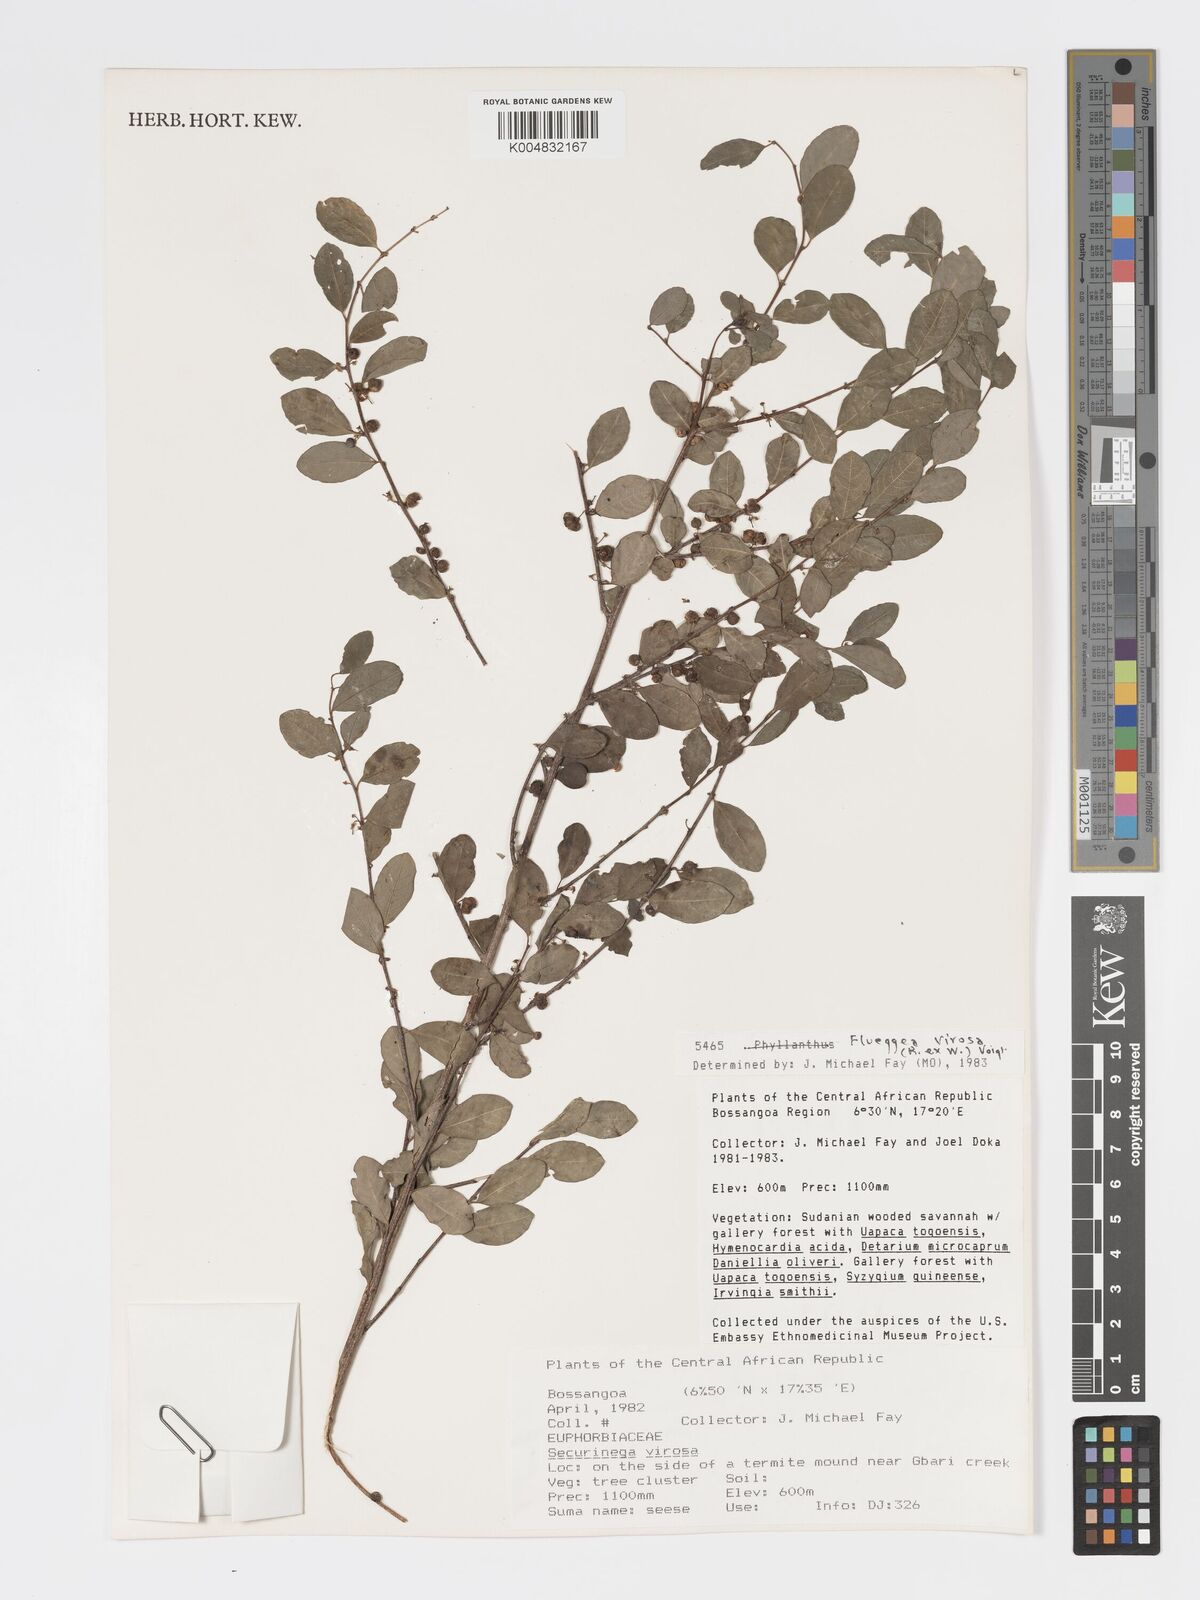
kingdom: Plantae
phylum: Tracheophyta
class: Magnoliopsida
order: Malpighiales
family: Phyllanthaceae
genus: Flueggea
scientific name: Flueggea virosa
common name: Common bushweed
